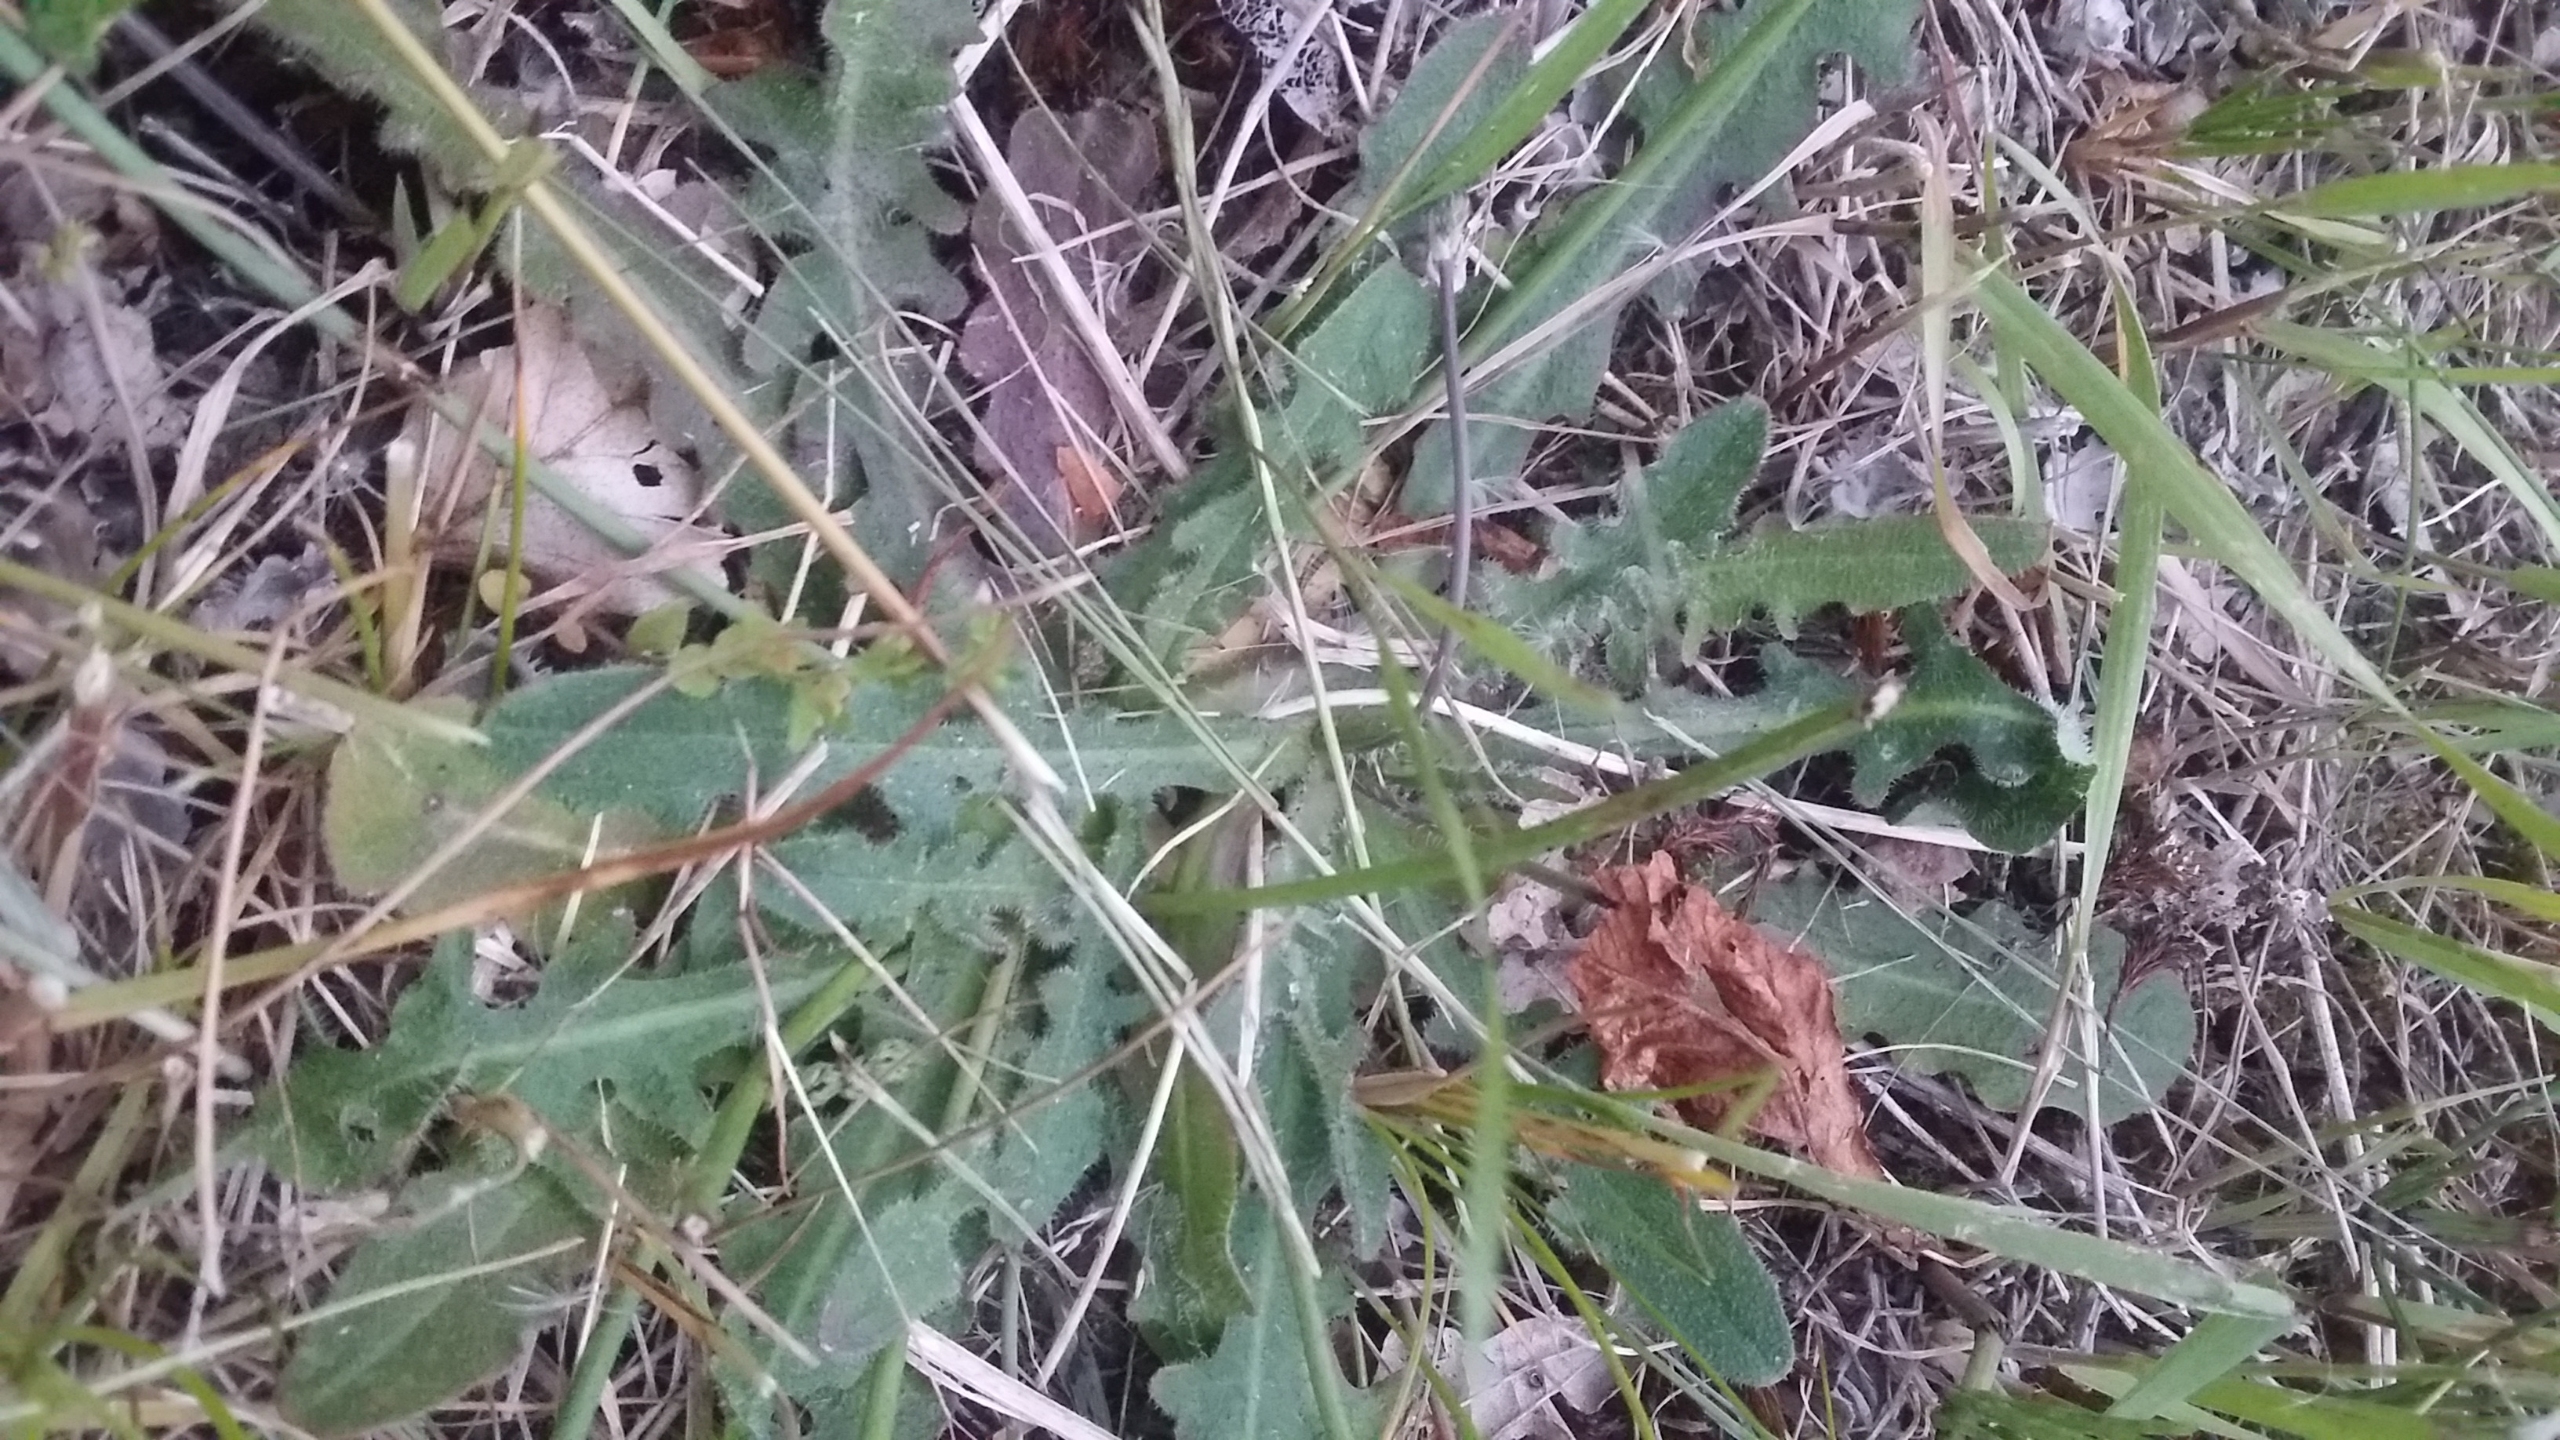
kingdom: Plantae
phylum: Tracheophyta
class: Magnoliopsida
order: Asterales
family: Asteraceae
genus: Hypochaeris
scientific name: Hypochaeris radicata
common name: Almindelig kongepen
